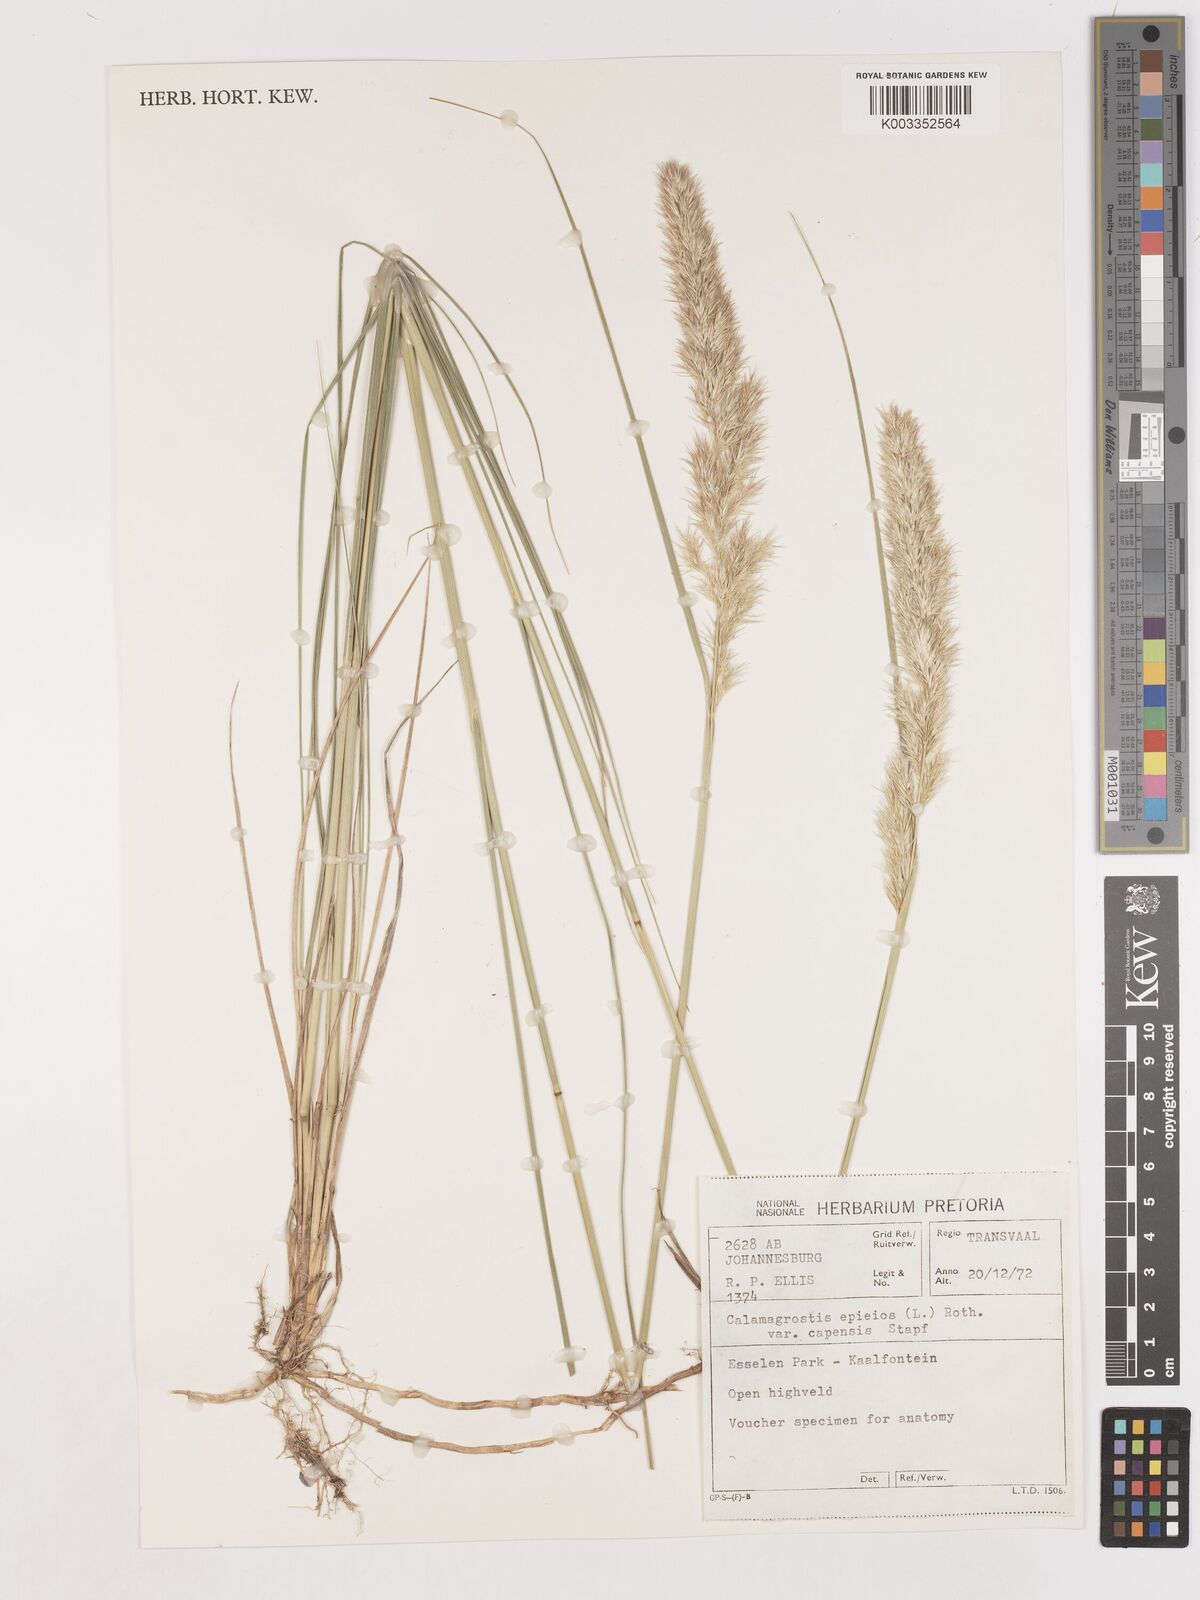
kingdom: Plantae
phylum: Tracheophyta
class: Liliopsida
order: Poales
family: Poaceae
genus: Calamagrostis
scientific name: Calamagrostis epigejos
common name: Wood small-reed
